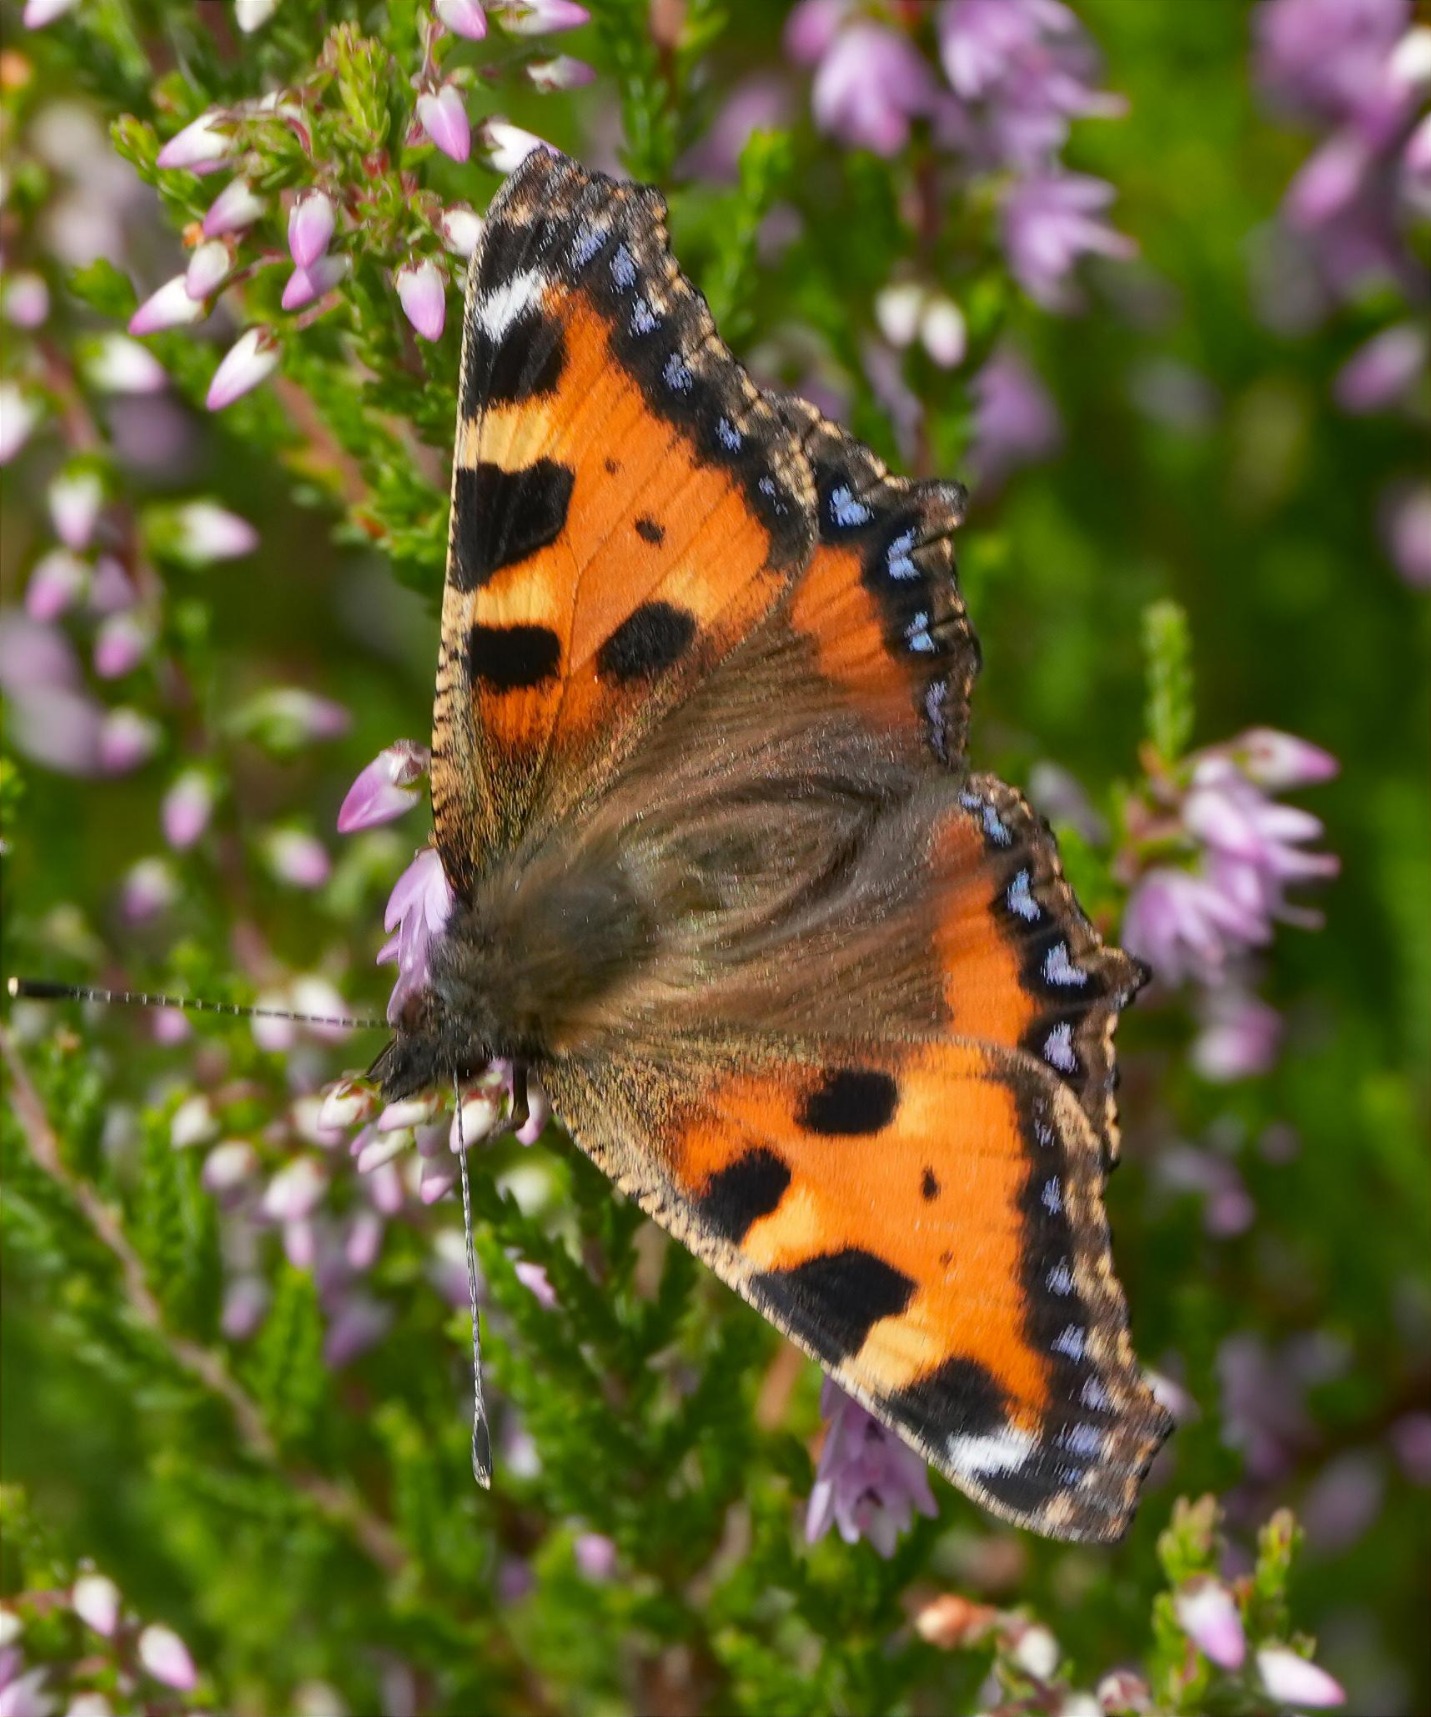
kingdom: Animalia
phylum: Arthropoda
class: Insecta
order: Lepidoptera
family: Nymphalidae
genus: Aglais
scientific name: Aglais urticae
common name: Nældens takvinge
